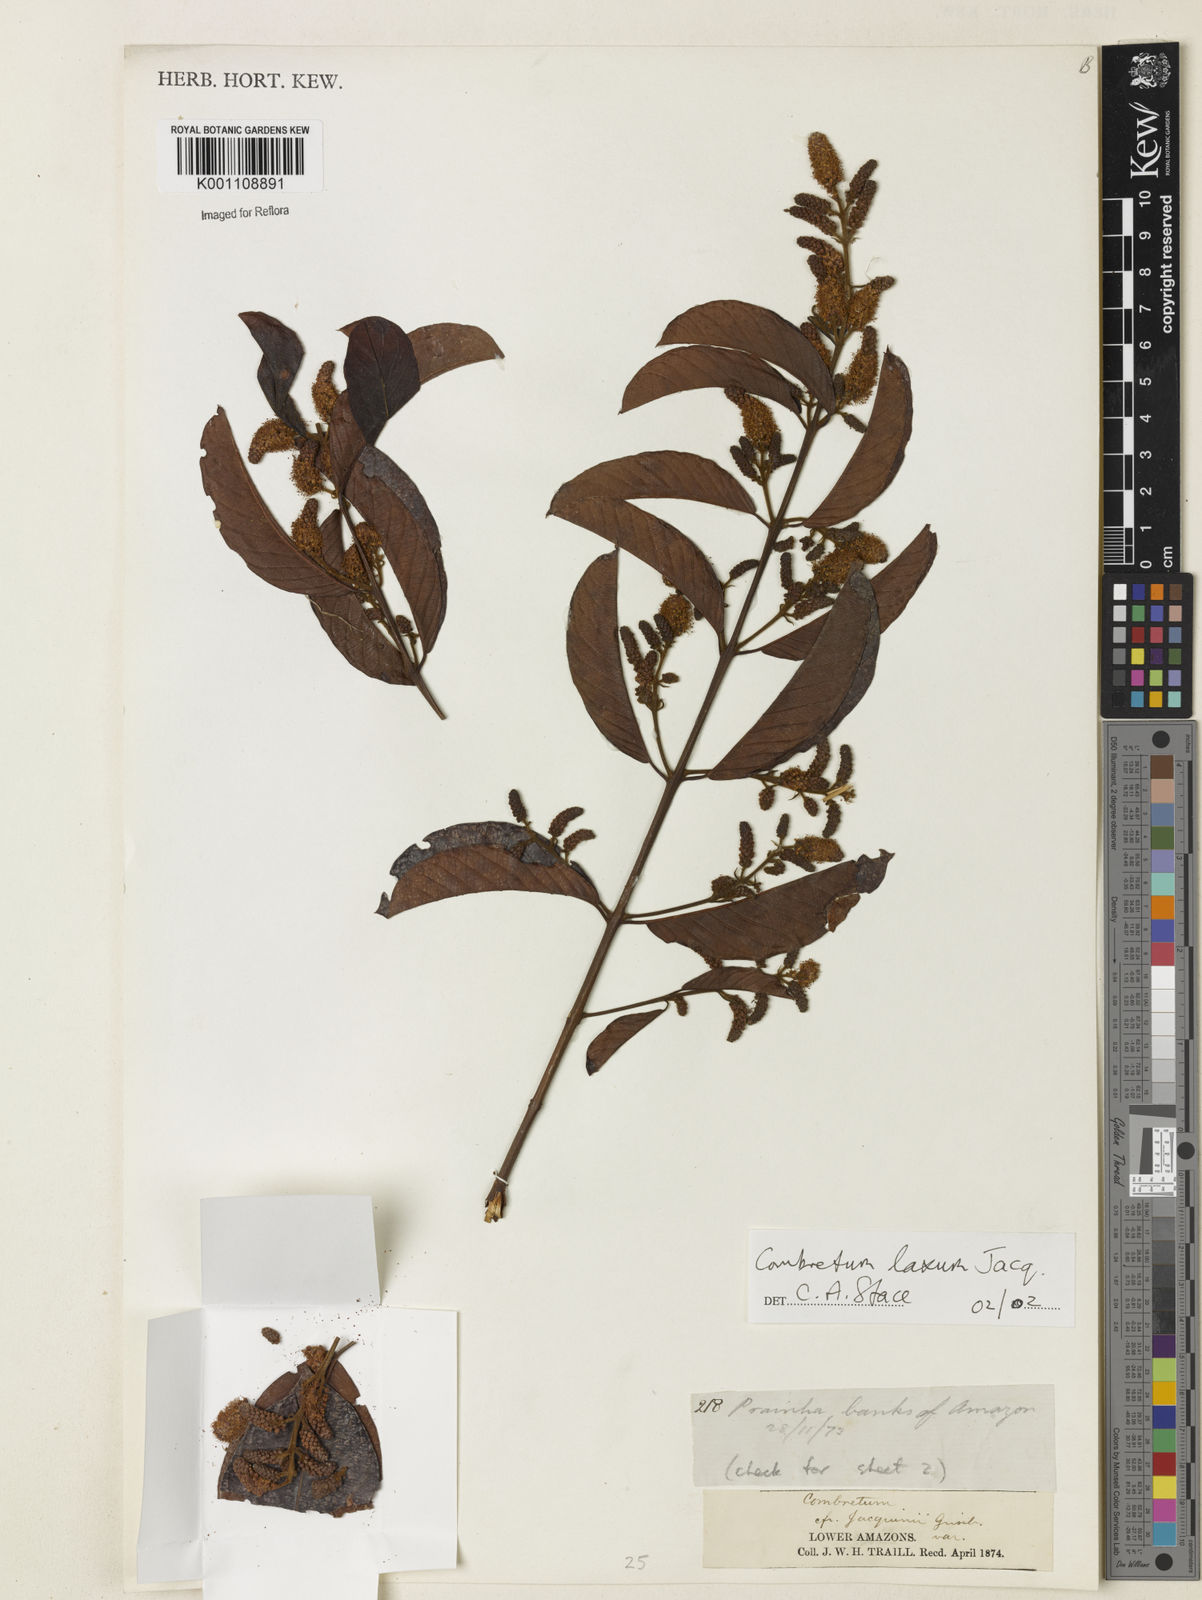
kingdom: Plantae
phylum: Tracheophyta
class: Magnoliopsida
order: Myrtales
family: Combretaceae
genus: Combretum
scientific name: Combretum laxum
